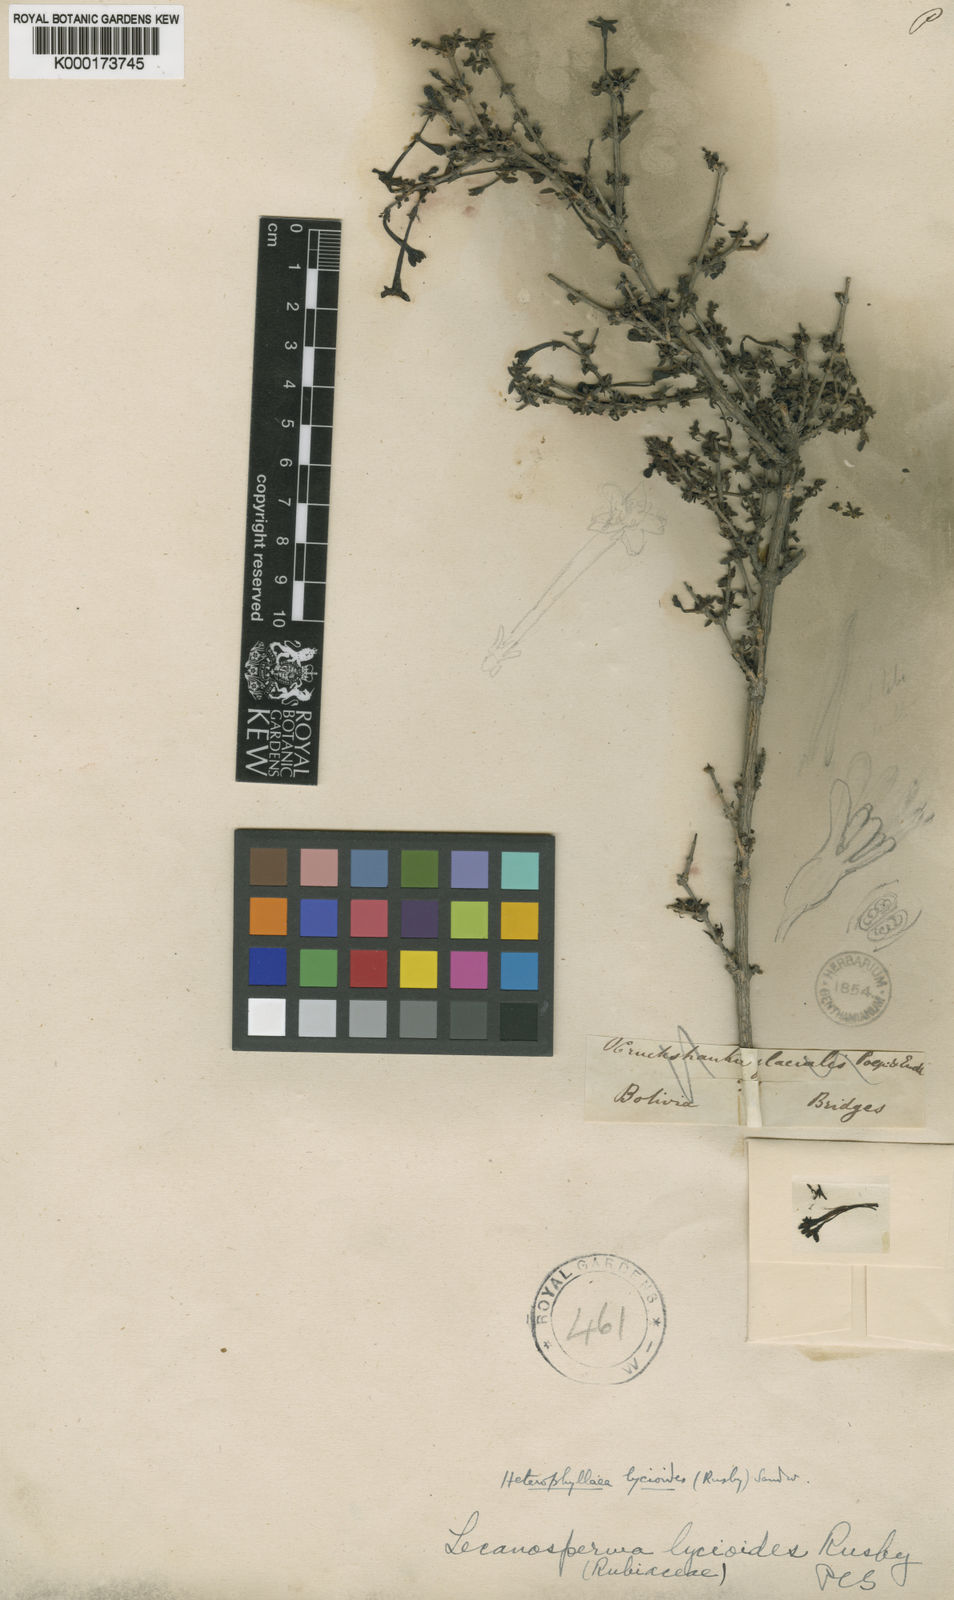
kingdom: Plantae
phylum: Tracheophyta
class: Magnoliopsida
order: Gentianales
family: Rubiaceae
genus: Heterophyllaea
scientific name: Heterophyllaea lycioides
